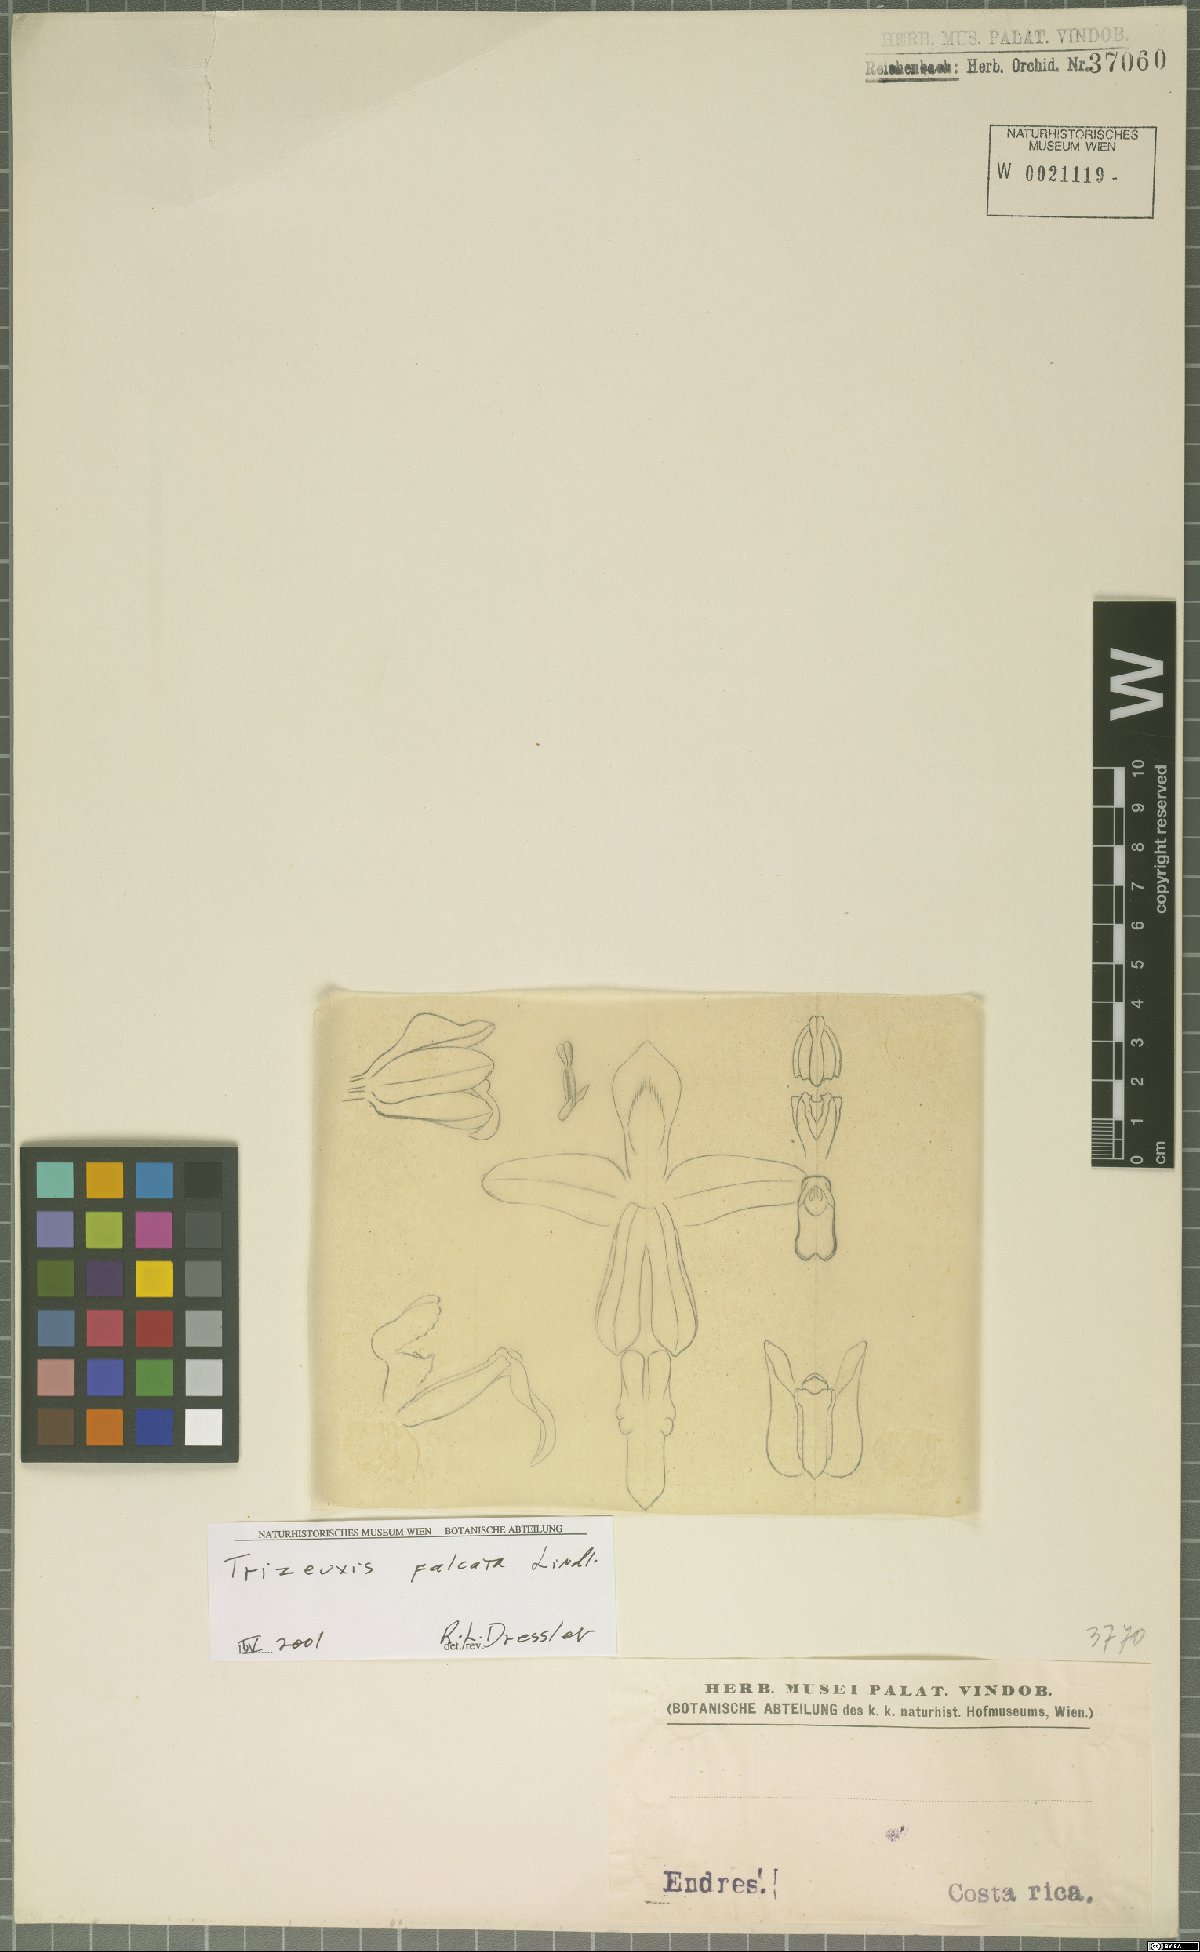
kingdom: Plantae
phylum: Tracheophyta
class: Liliopsida
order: Asparagales
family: Orchidaceae
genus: Trizeuxis
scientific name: Trizeuxis falcata
